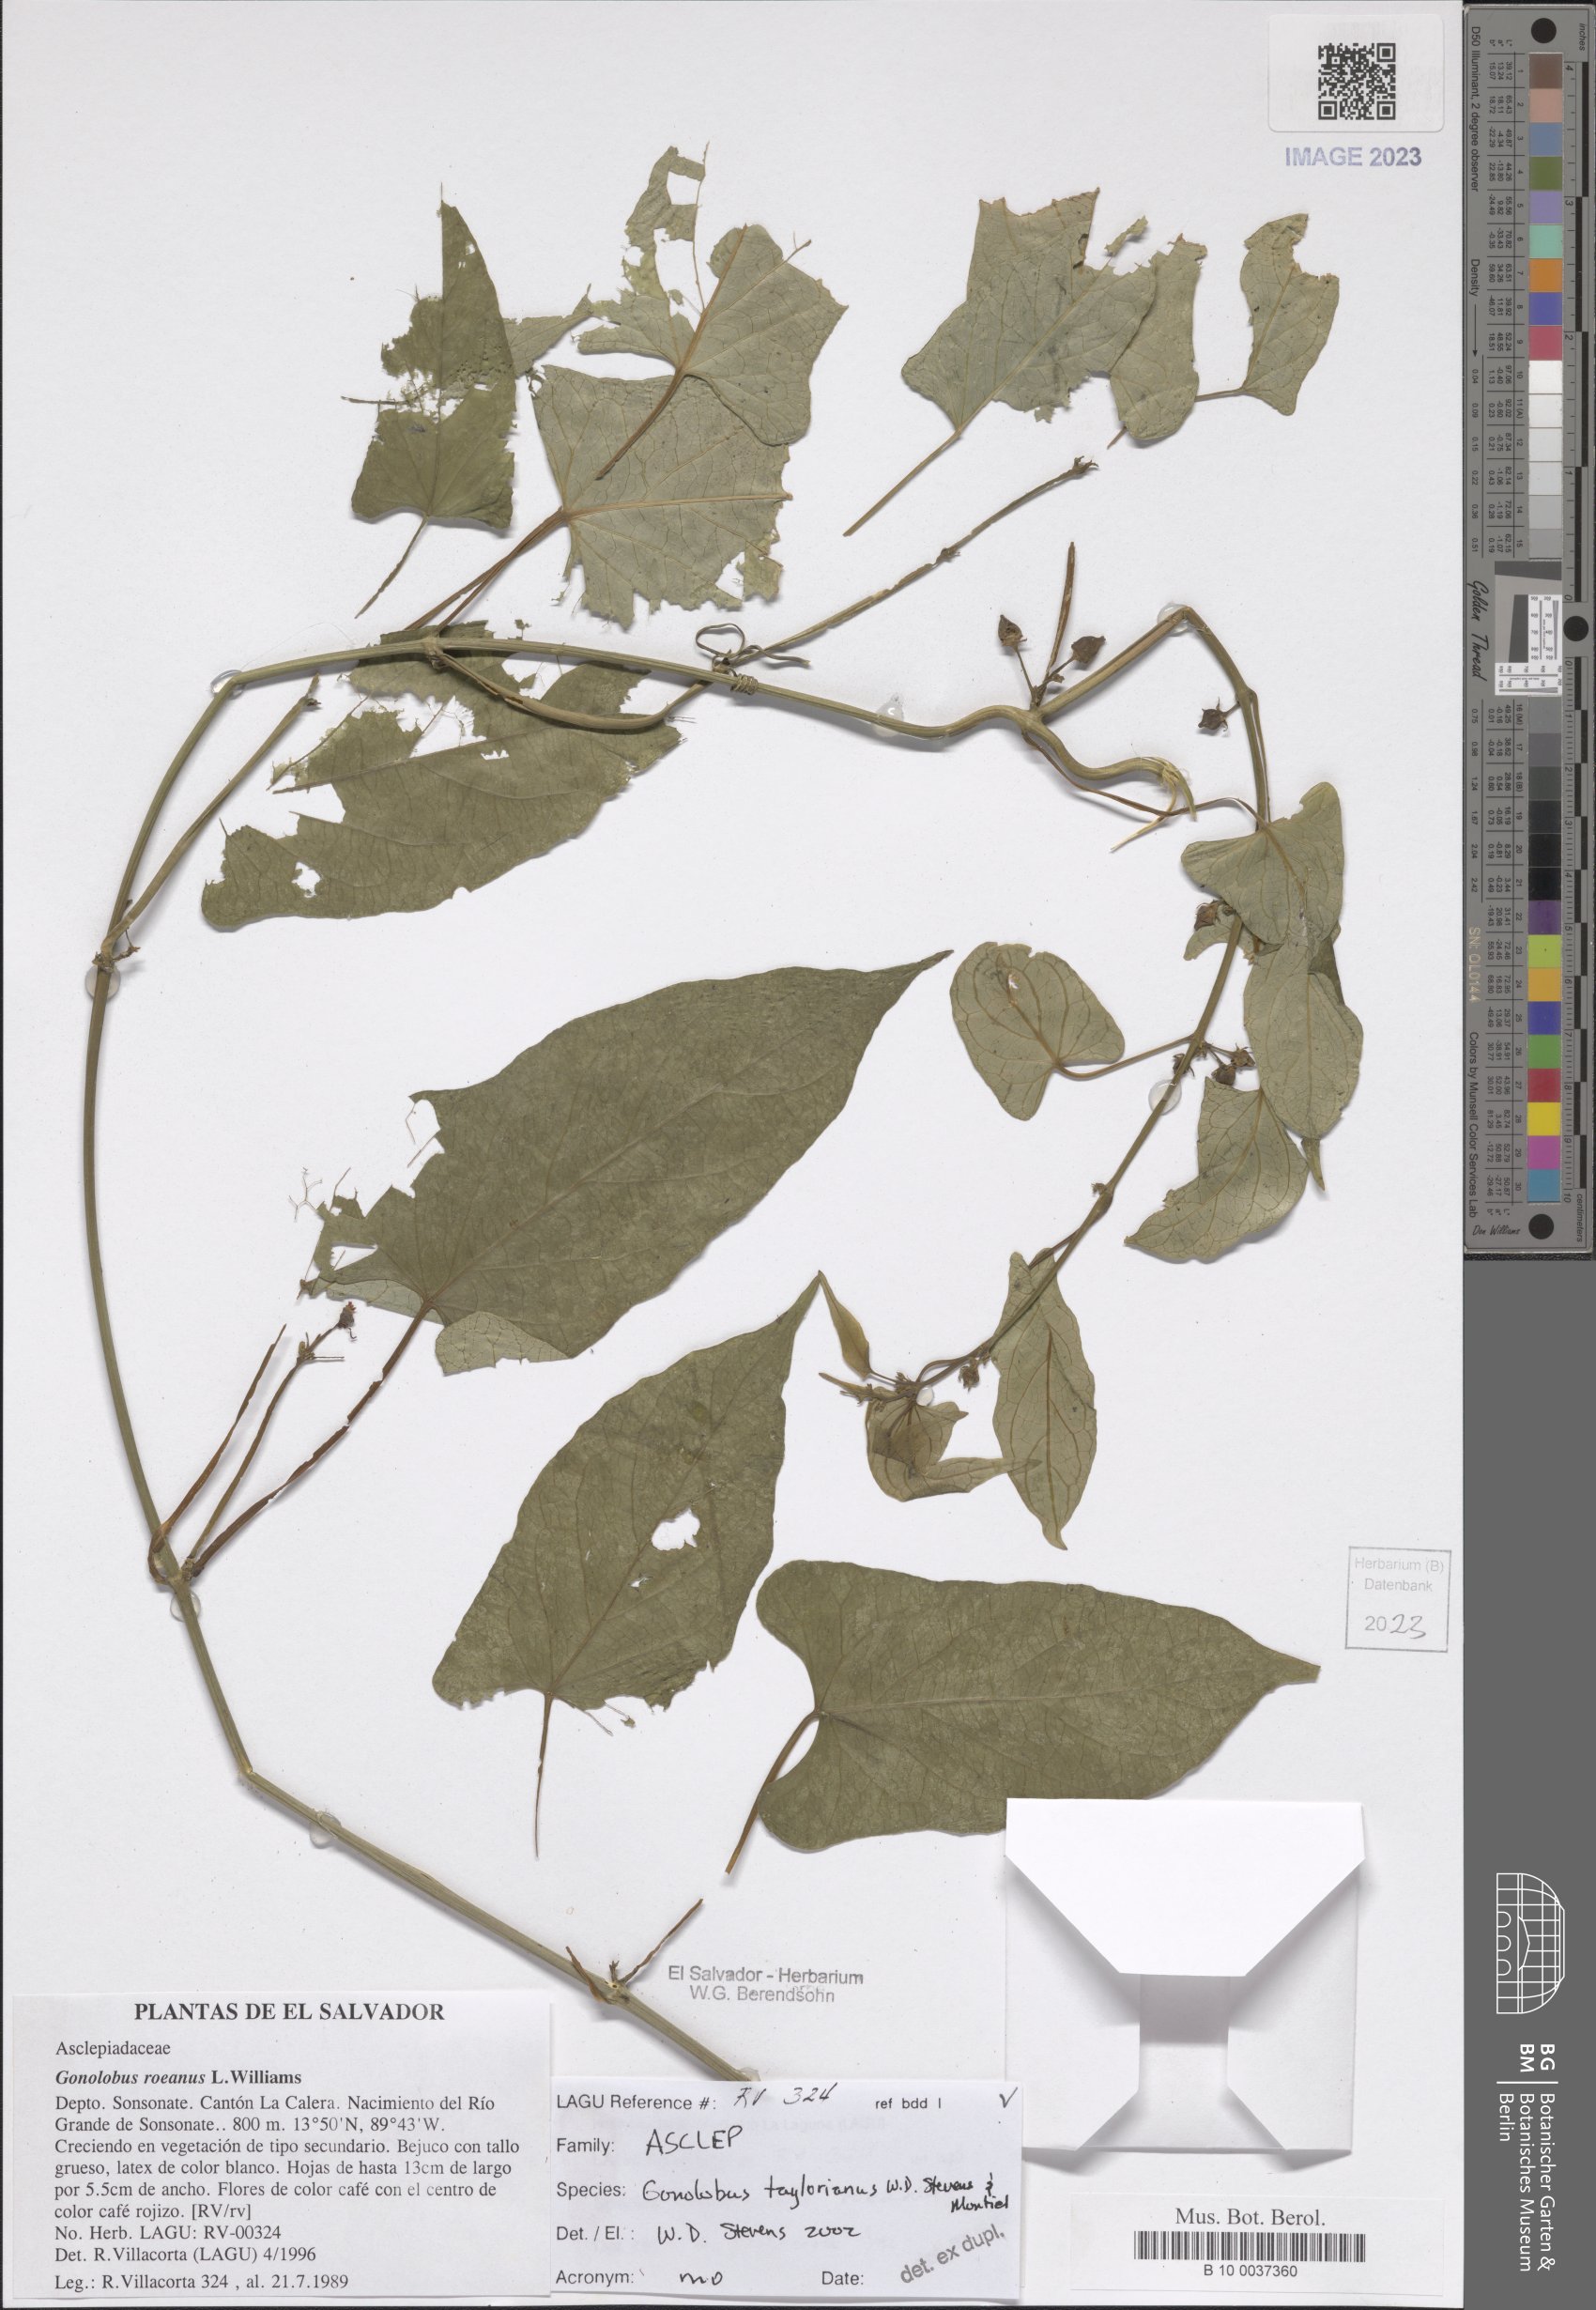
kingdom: Plantae
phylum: Tracheophyta
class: Magnoliopsida
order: Gentianales
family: Apocynaceae
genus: Gonolobus
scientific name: Gonolobus taylorianus
